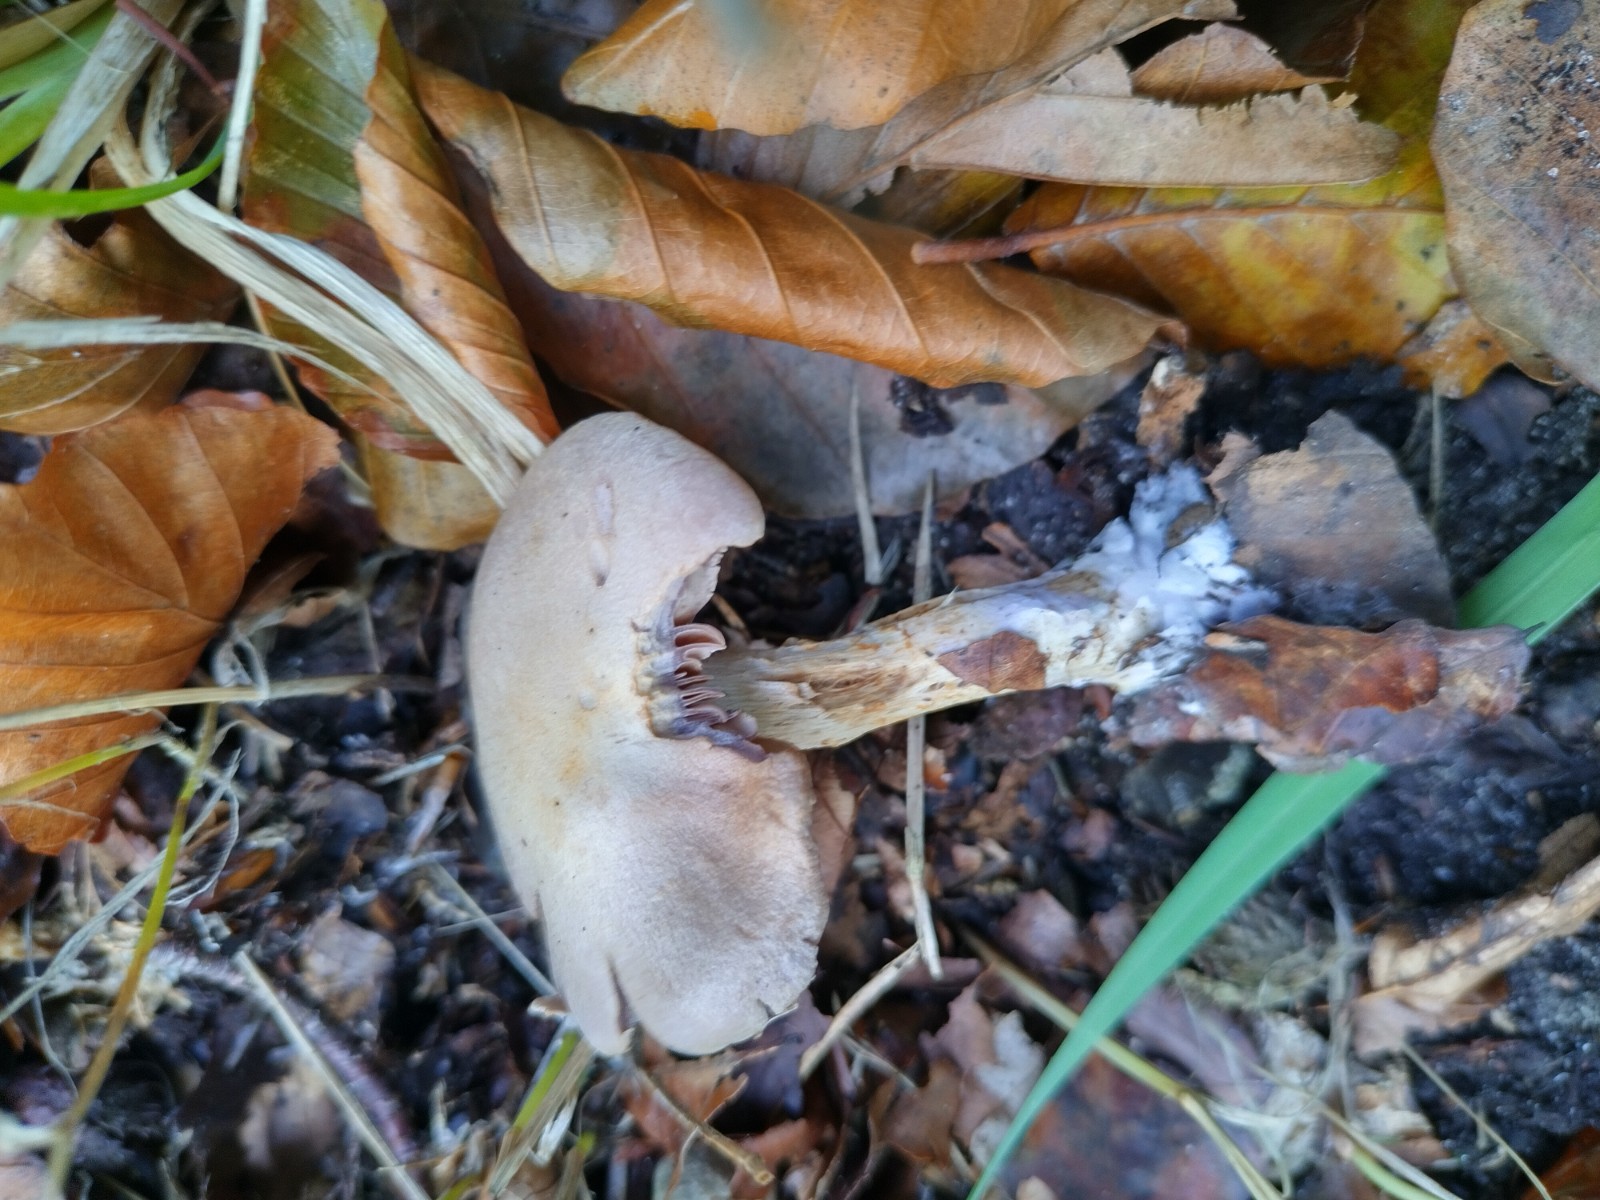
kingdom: Fungi
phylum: Basidiomycota
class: Agaricomycetes
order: Agaricales
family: Cortinariaceae
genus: Cortinarius
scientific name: Cortinarius
